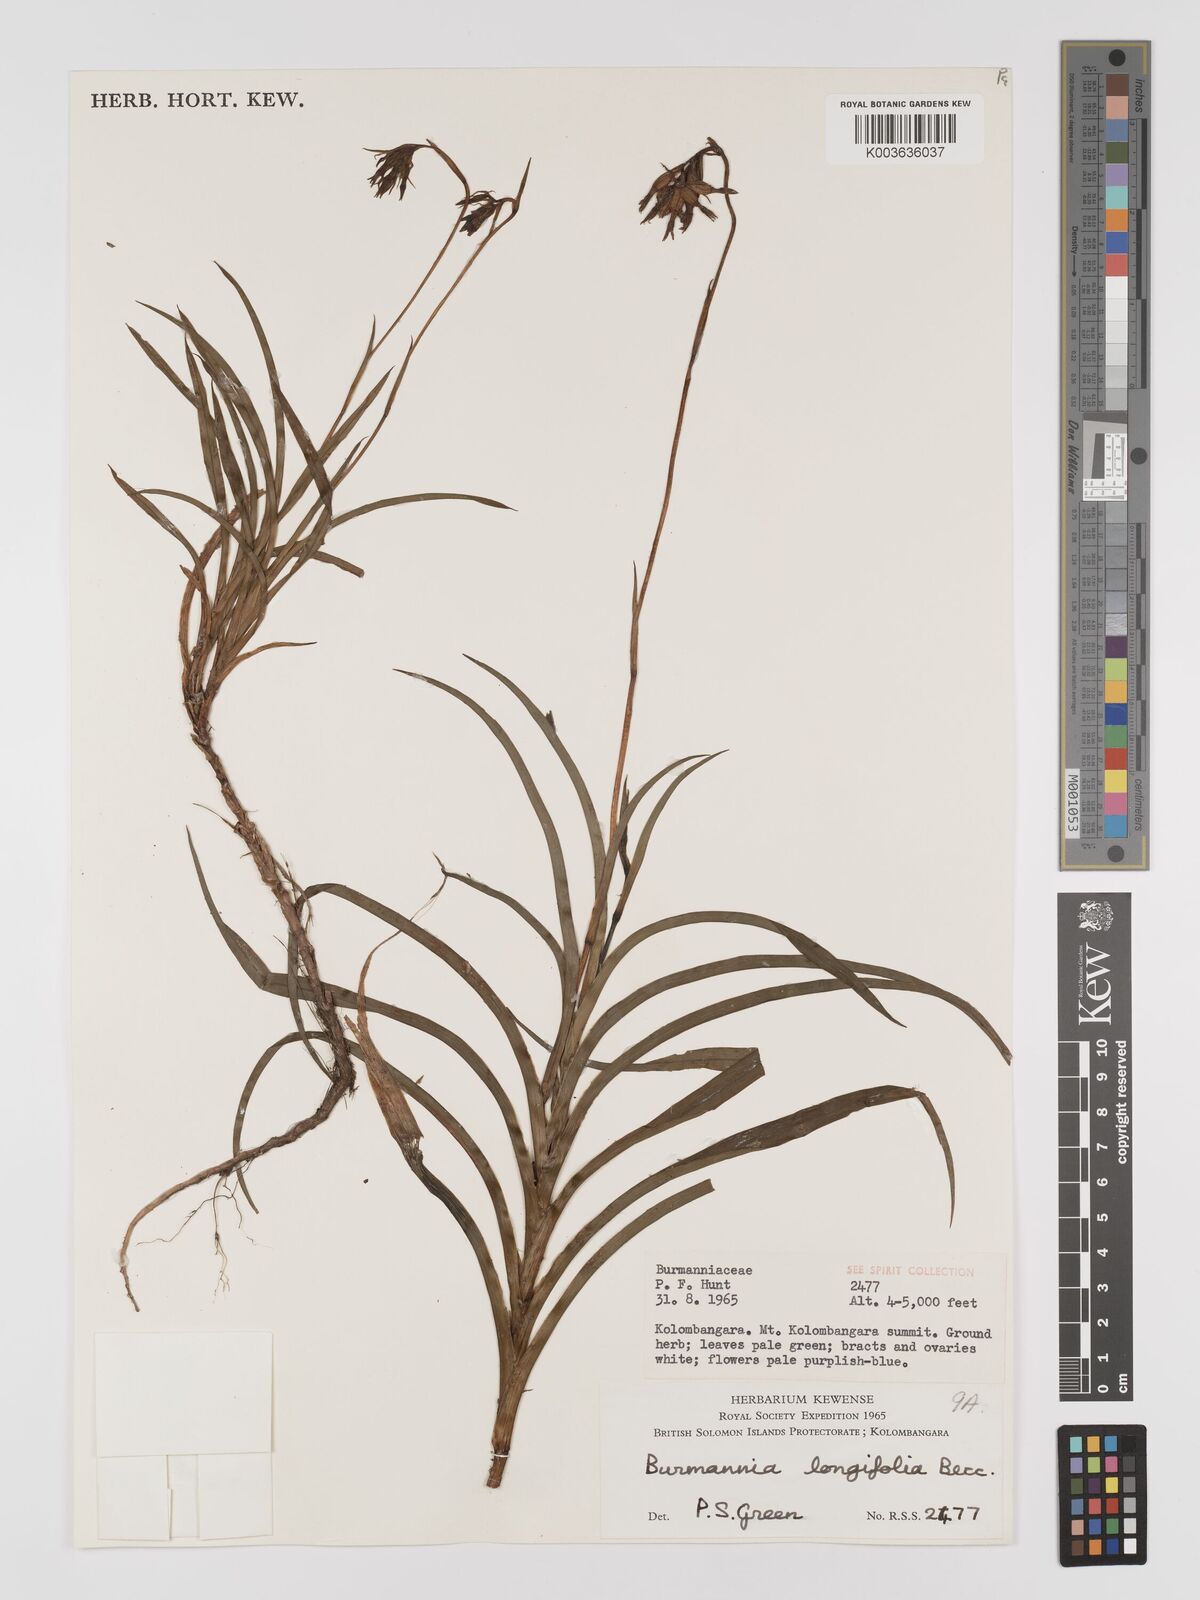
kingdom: Plantae
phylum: Tracheophyta
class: Liliopsida
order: Dioscoreales
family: Burmanniaceae
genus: Burmannia
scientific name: Burmannia longifolia
